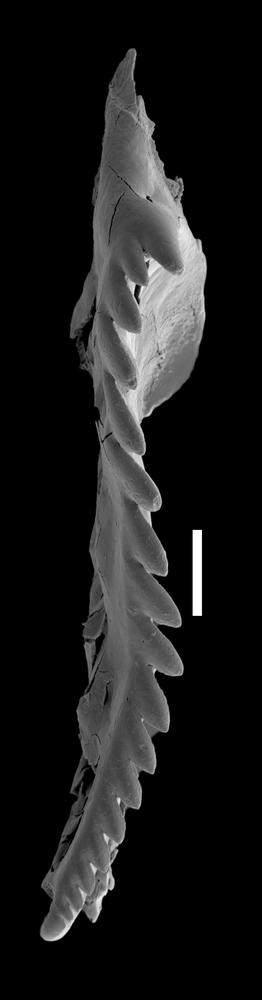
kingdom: Animalia
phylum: Annelida
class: Polychaeta
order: Eunicida
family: Mochtyellidae
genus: Mochtyella
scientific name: Mochtyella
